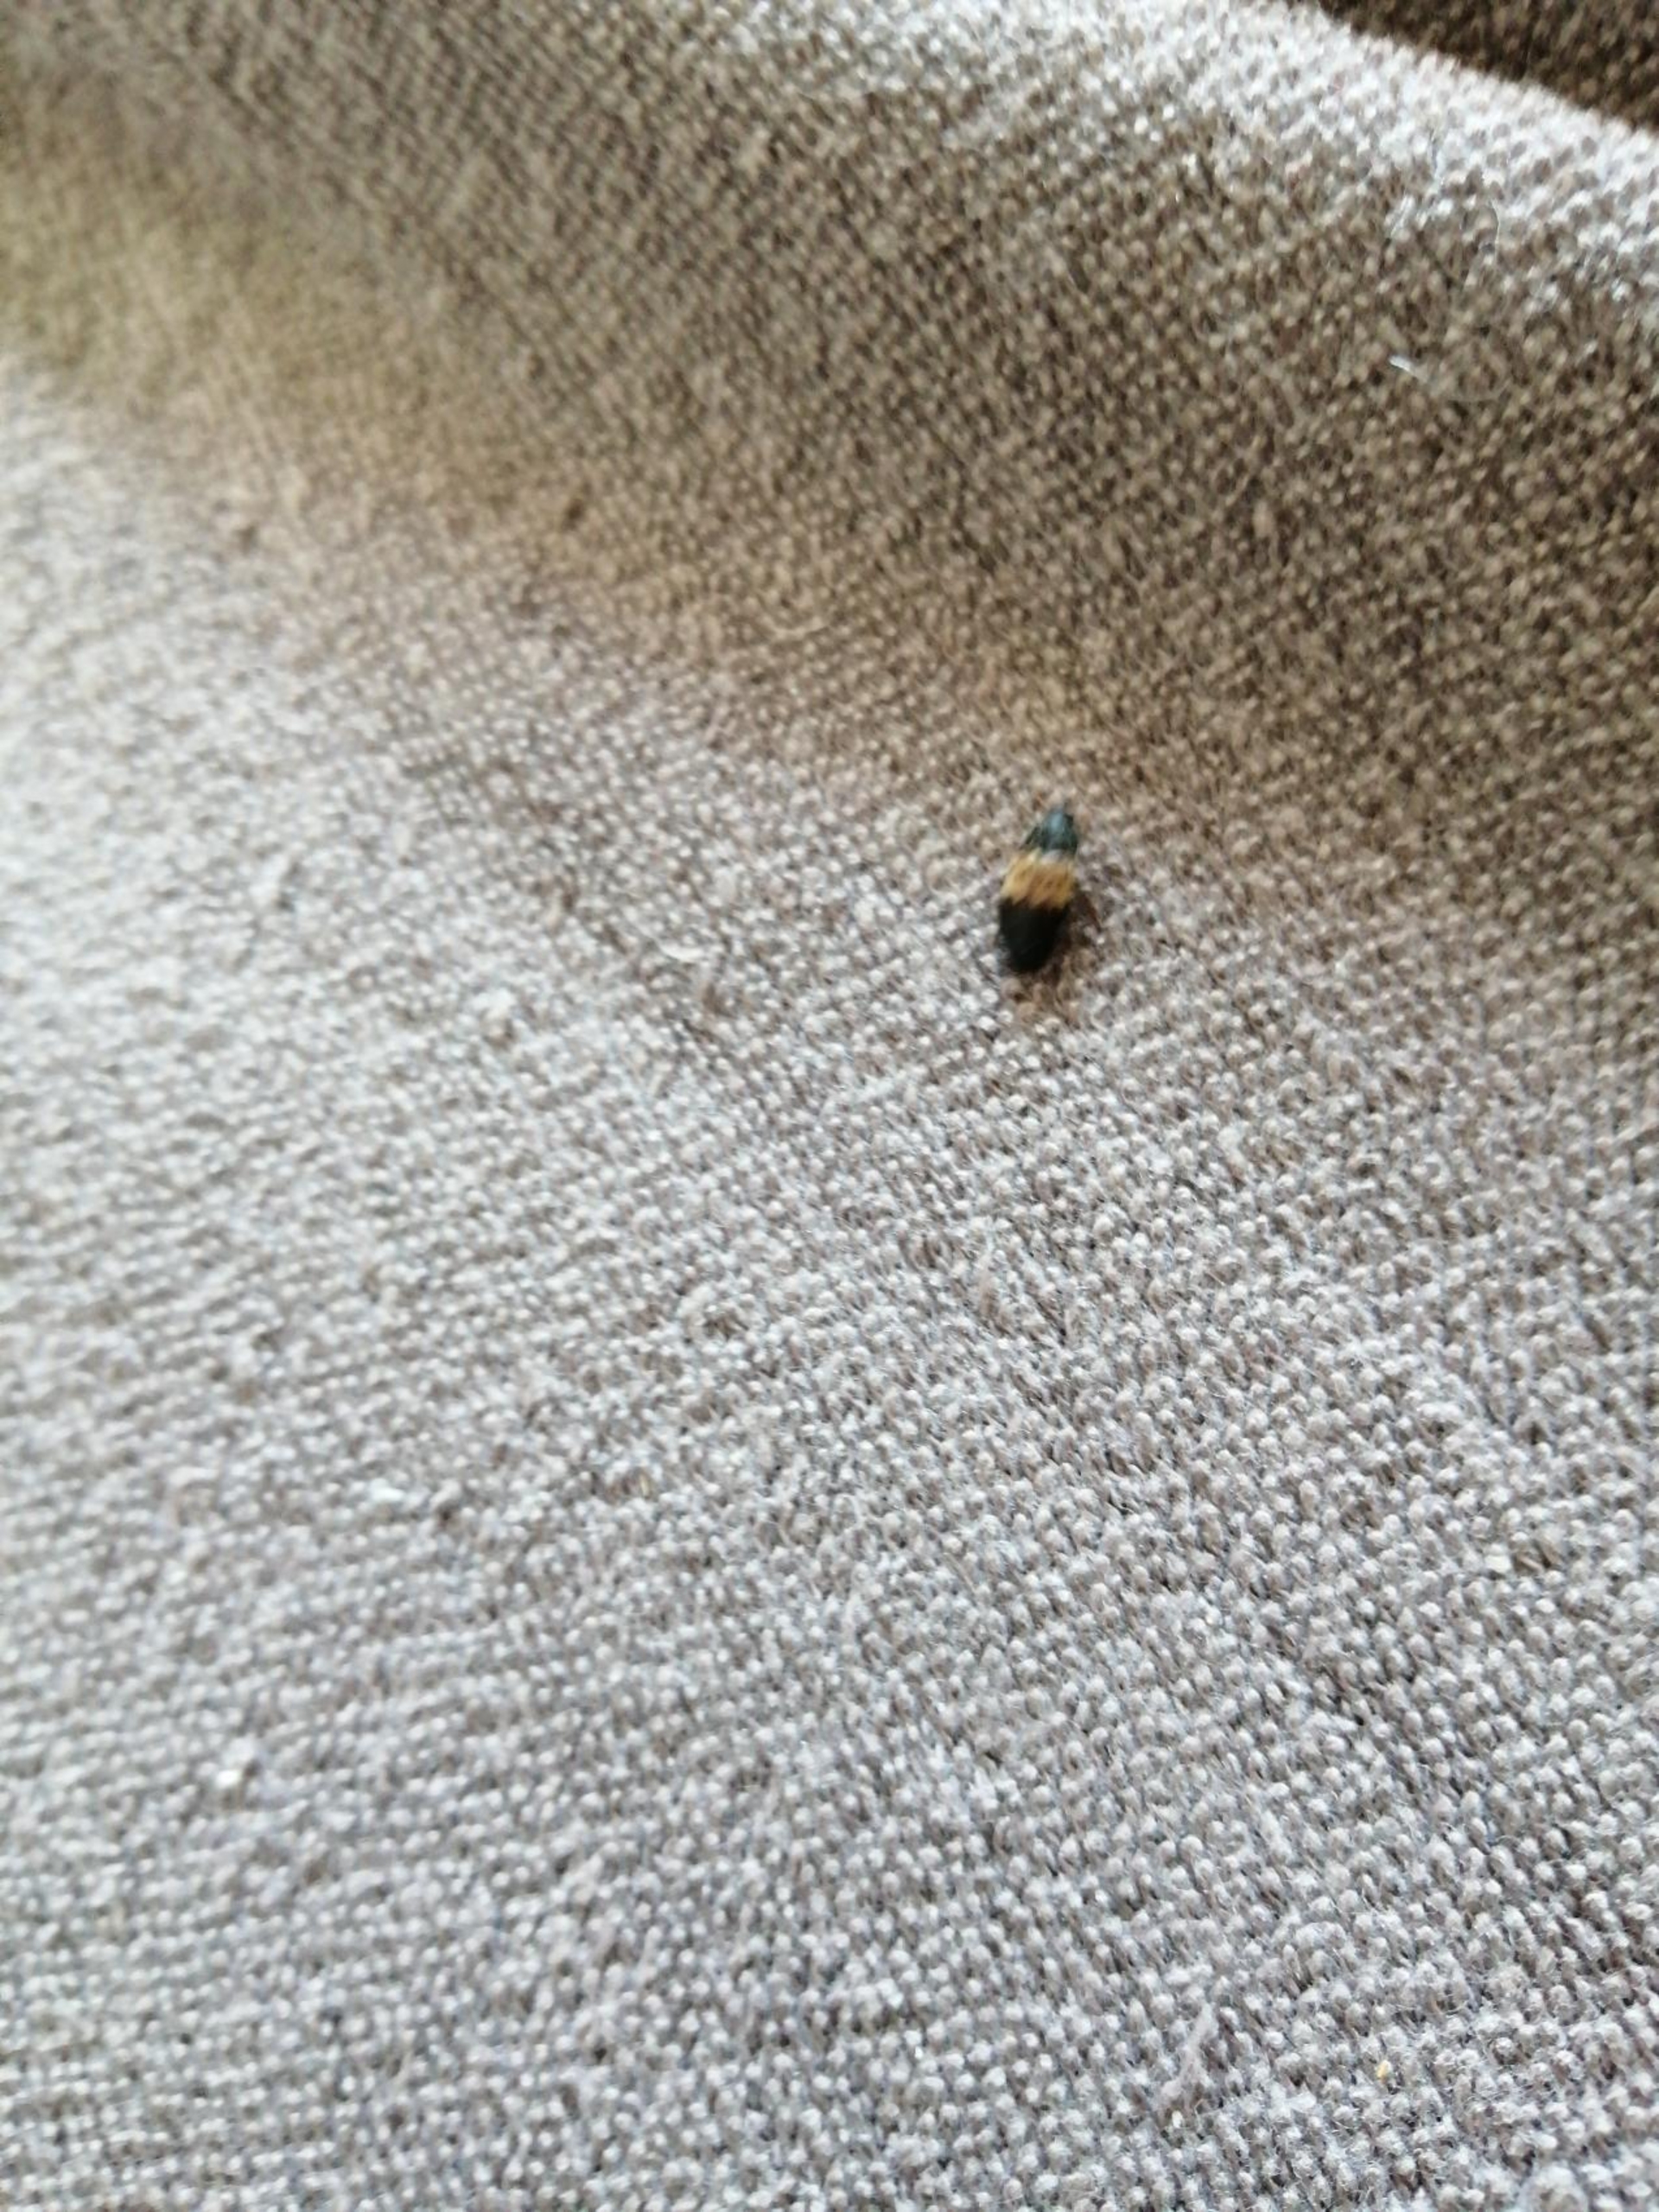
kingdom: Animalia
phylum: Arthropoda
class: Insecta
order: Coleoptera
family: Dermestidae
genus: Dermestes
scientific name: Dermestes lardarius
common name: Flæskeklanner
